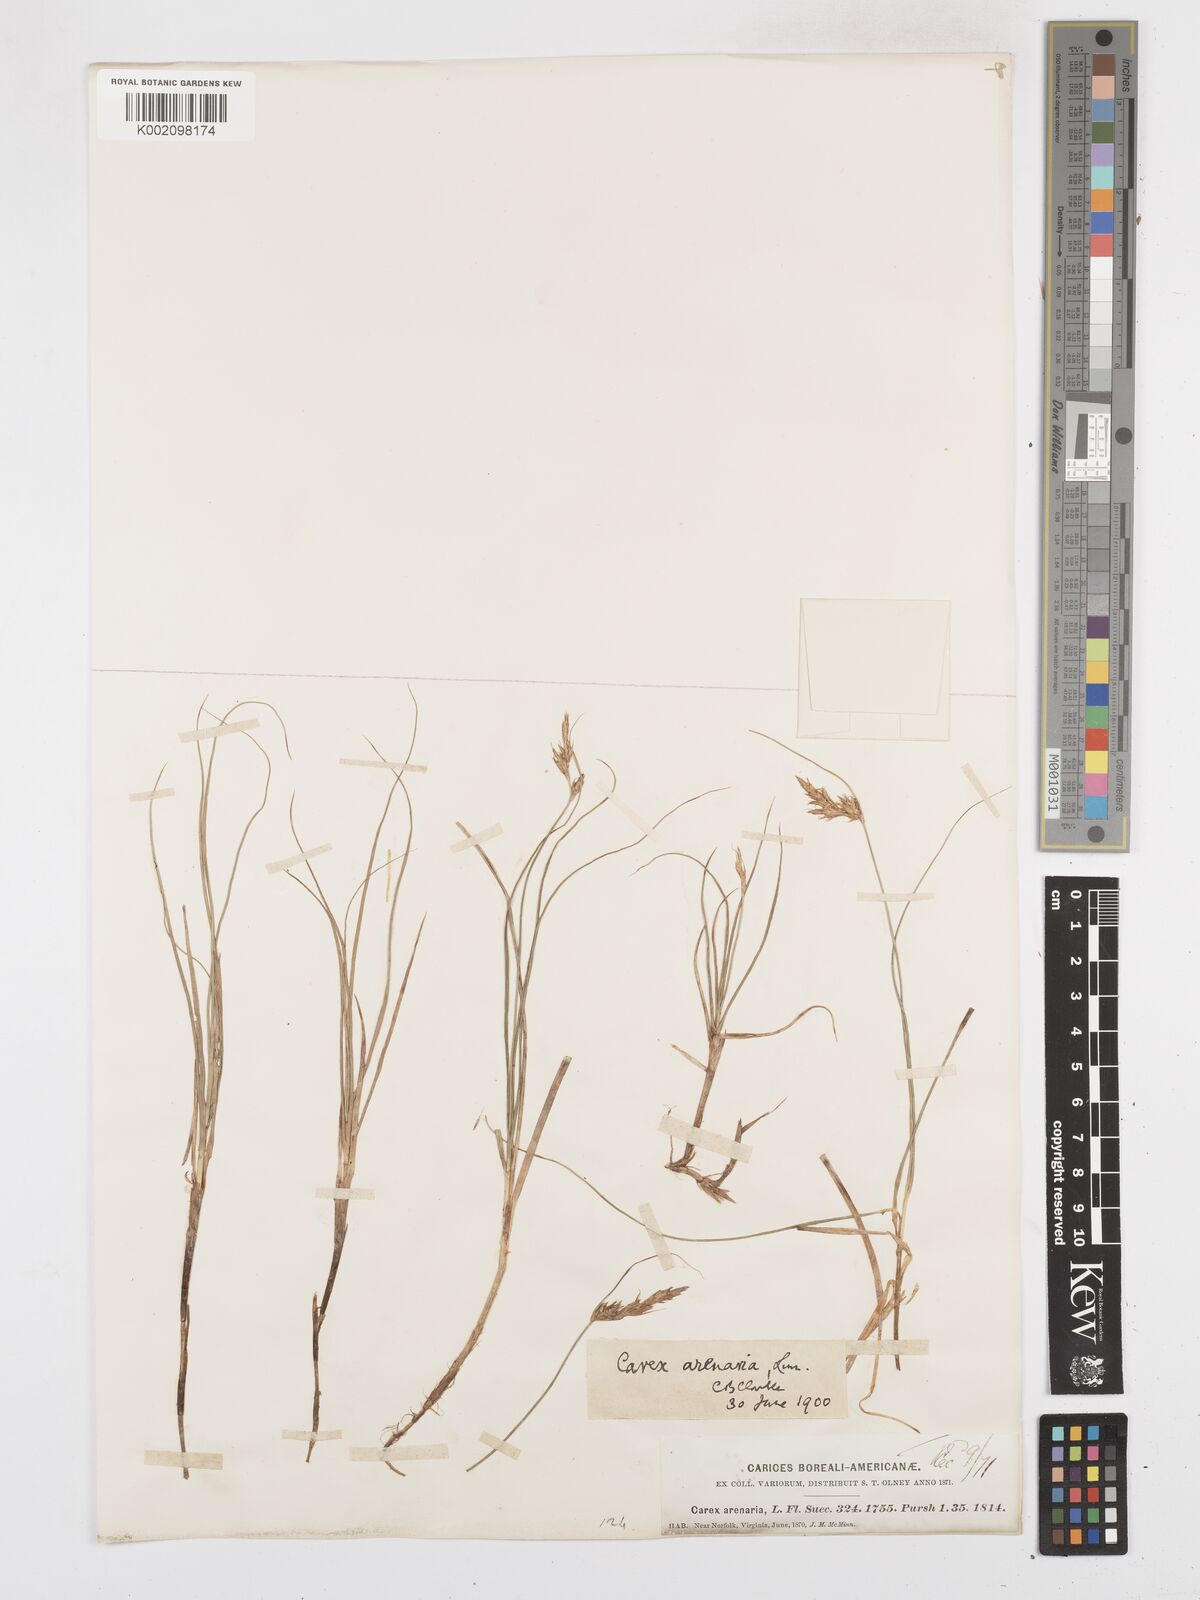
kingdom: Plantae
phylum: Tracheophyta
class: Liliopsida
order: Poales
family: Cyperaceae
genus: Carex
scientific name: Carex arenaria
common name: Sand sedge
